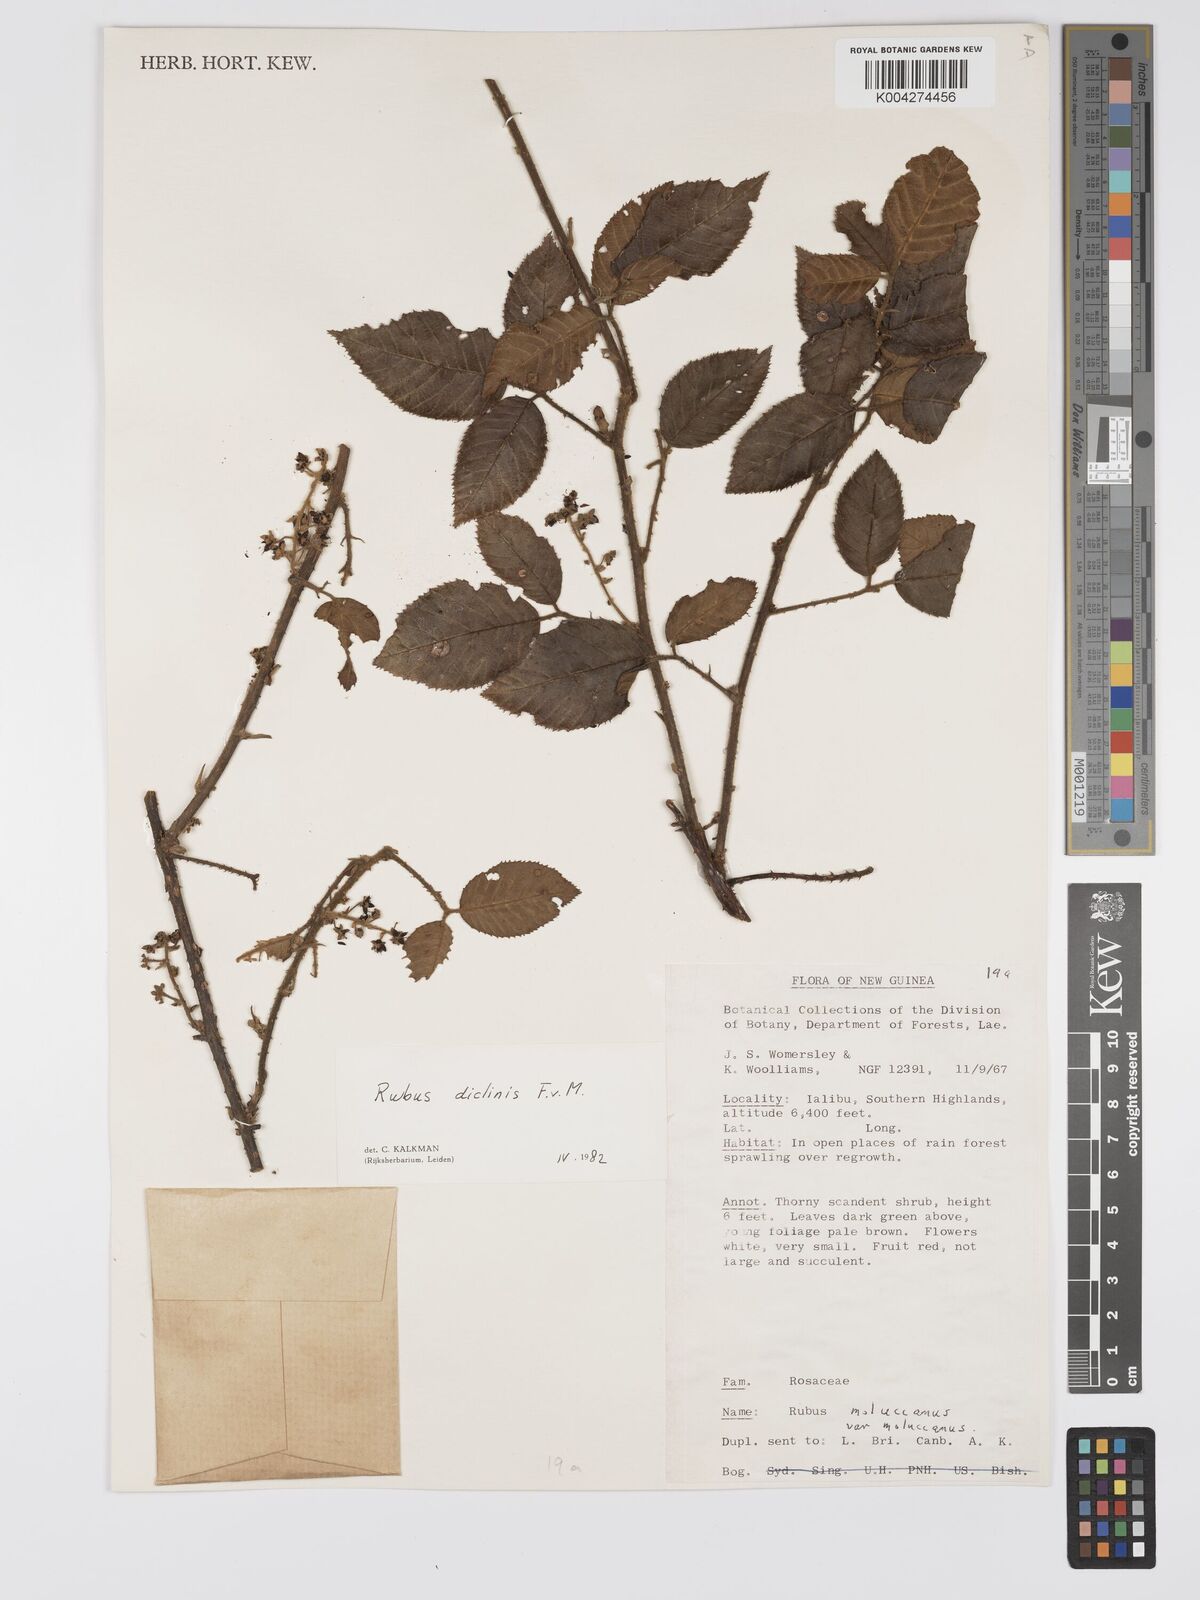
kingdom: Plantae
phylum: Tracheophyta
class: Magnoliopsida
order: Rosales
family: Rosaceae
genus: Rubus
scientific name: Rubus diclinis
